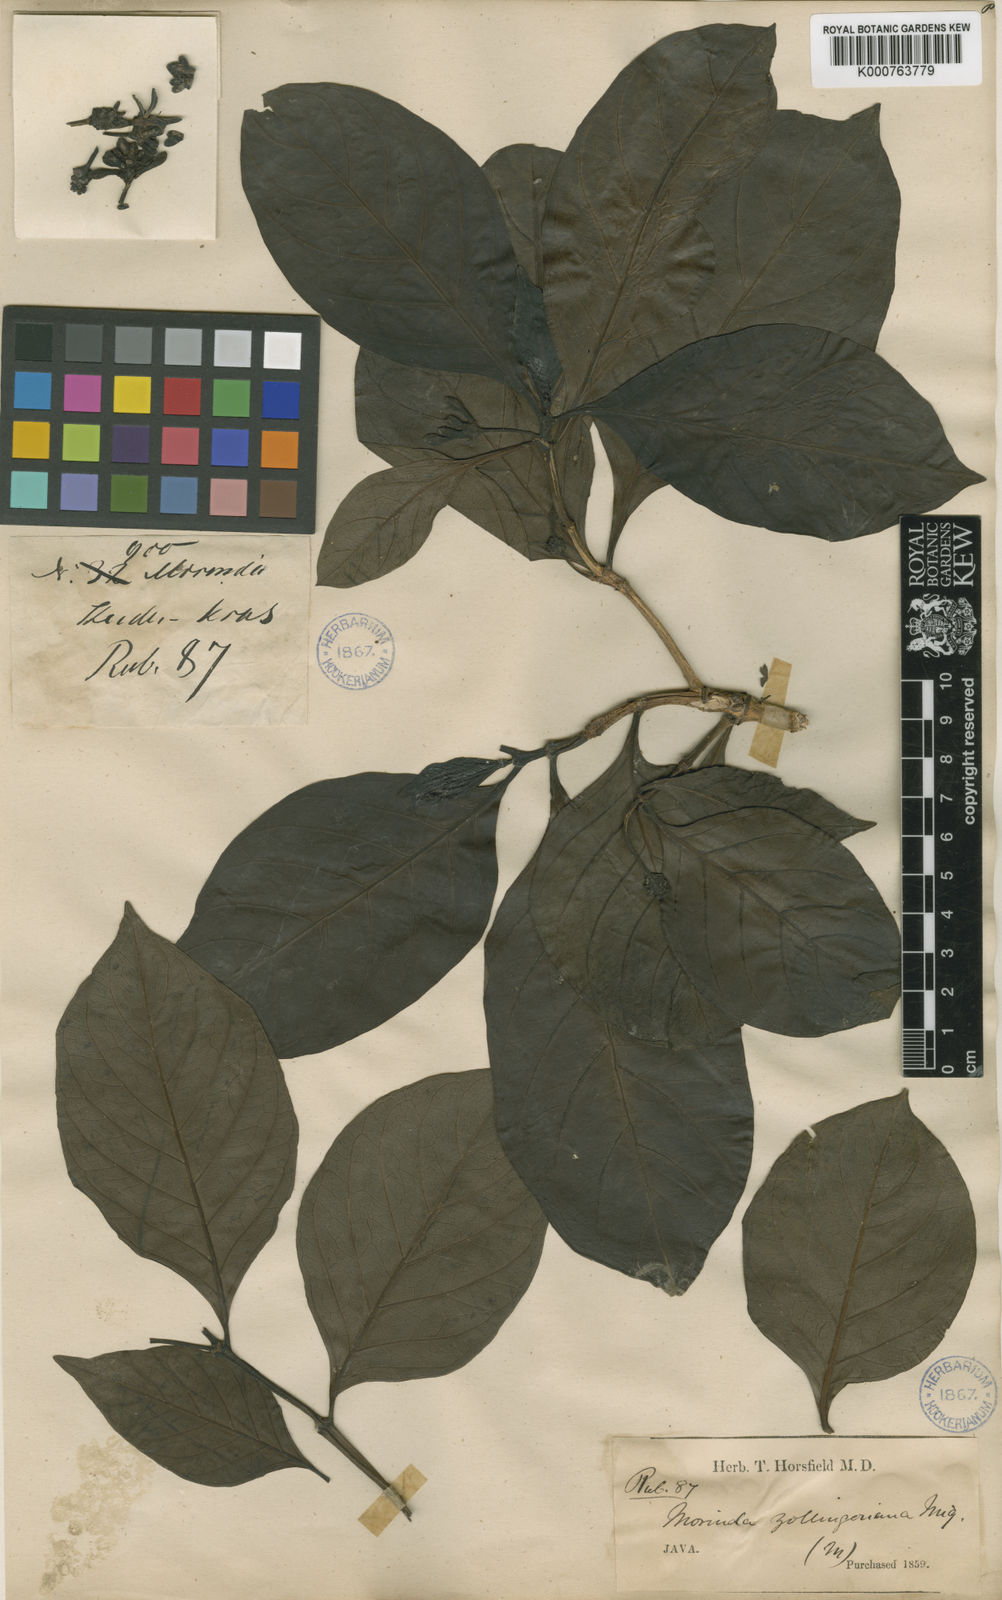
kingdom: Plantae
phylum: Tracheophyta
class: Magnoliopsida
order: Gentianales
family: Rubiaceae
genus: Morinda
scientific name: Morinda citrifolia
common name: Indian-mulberry
